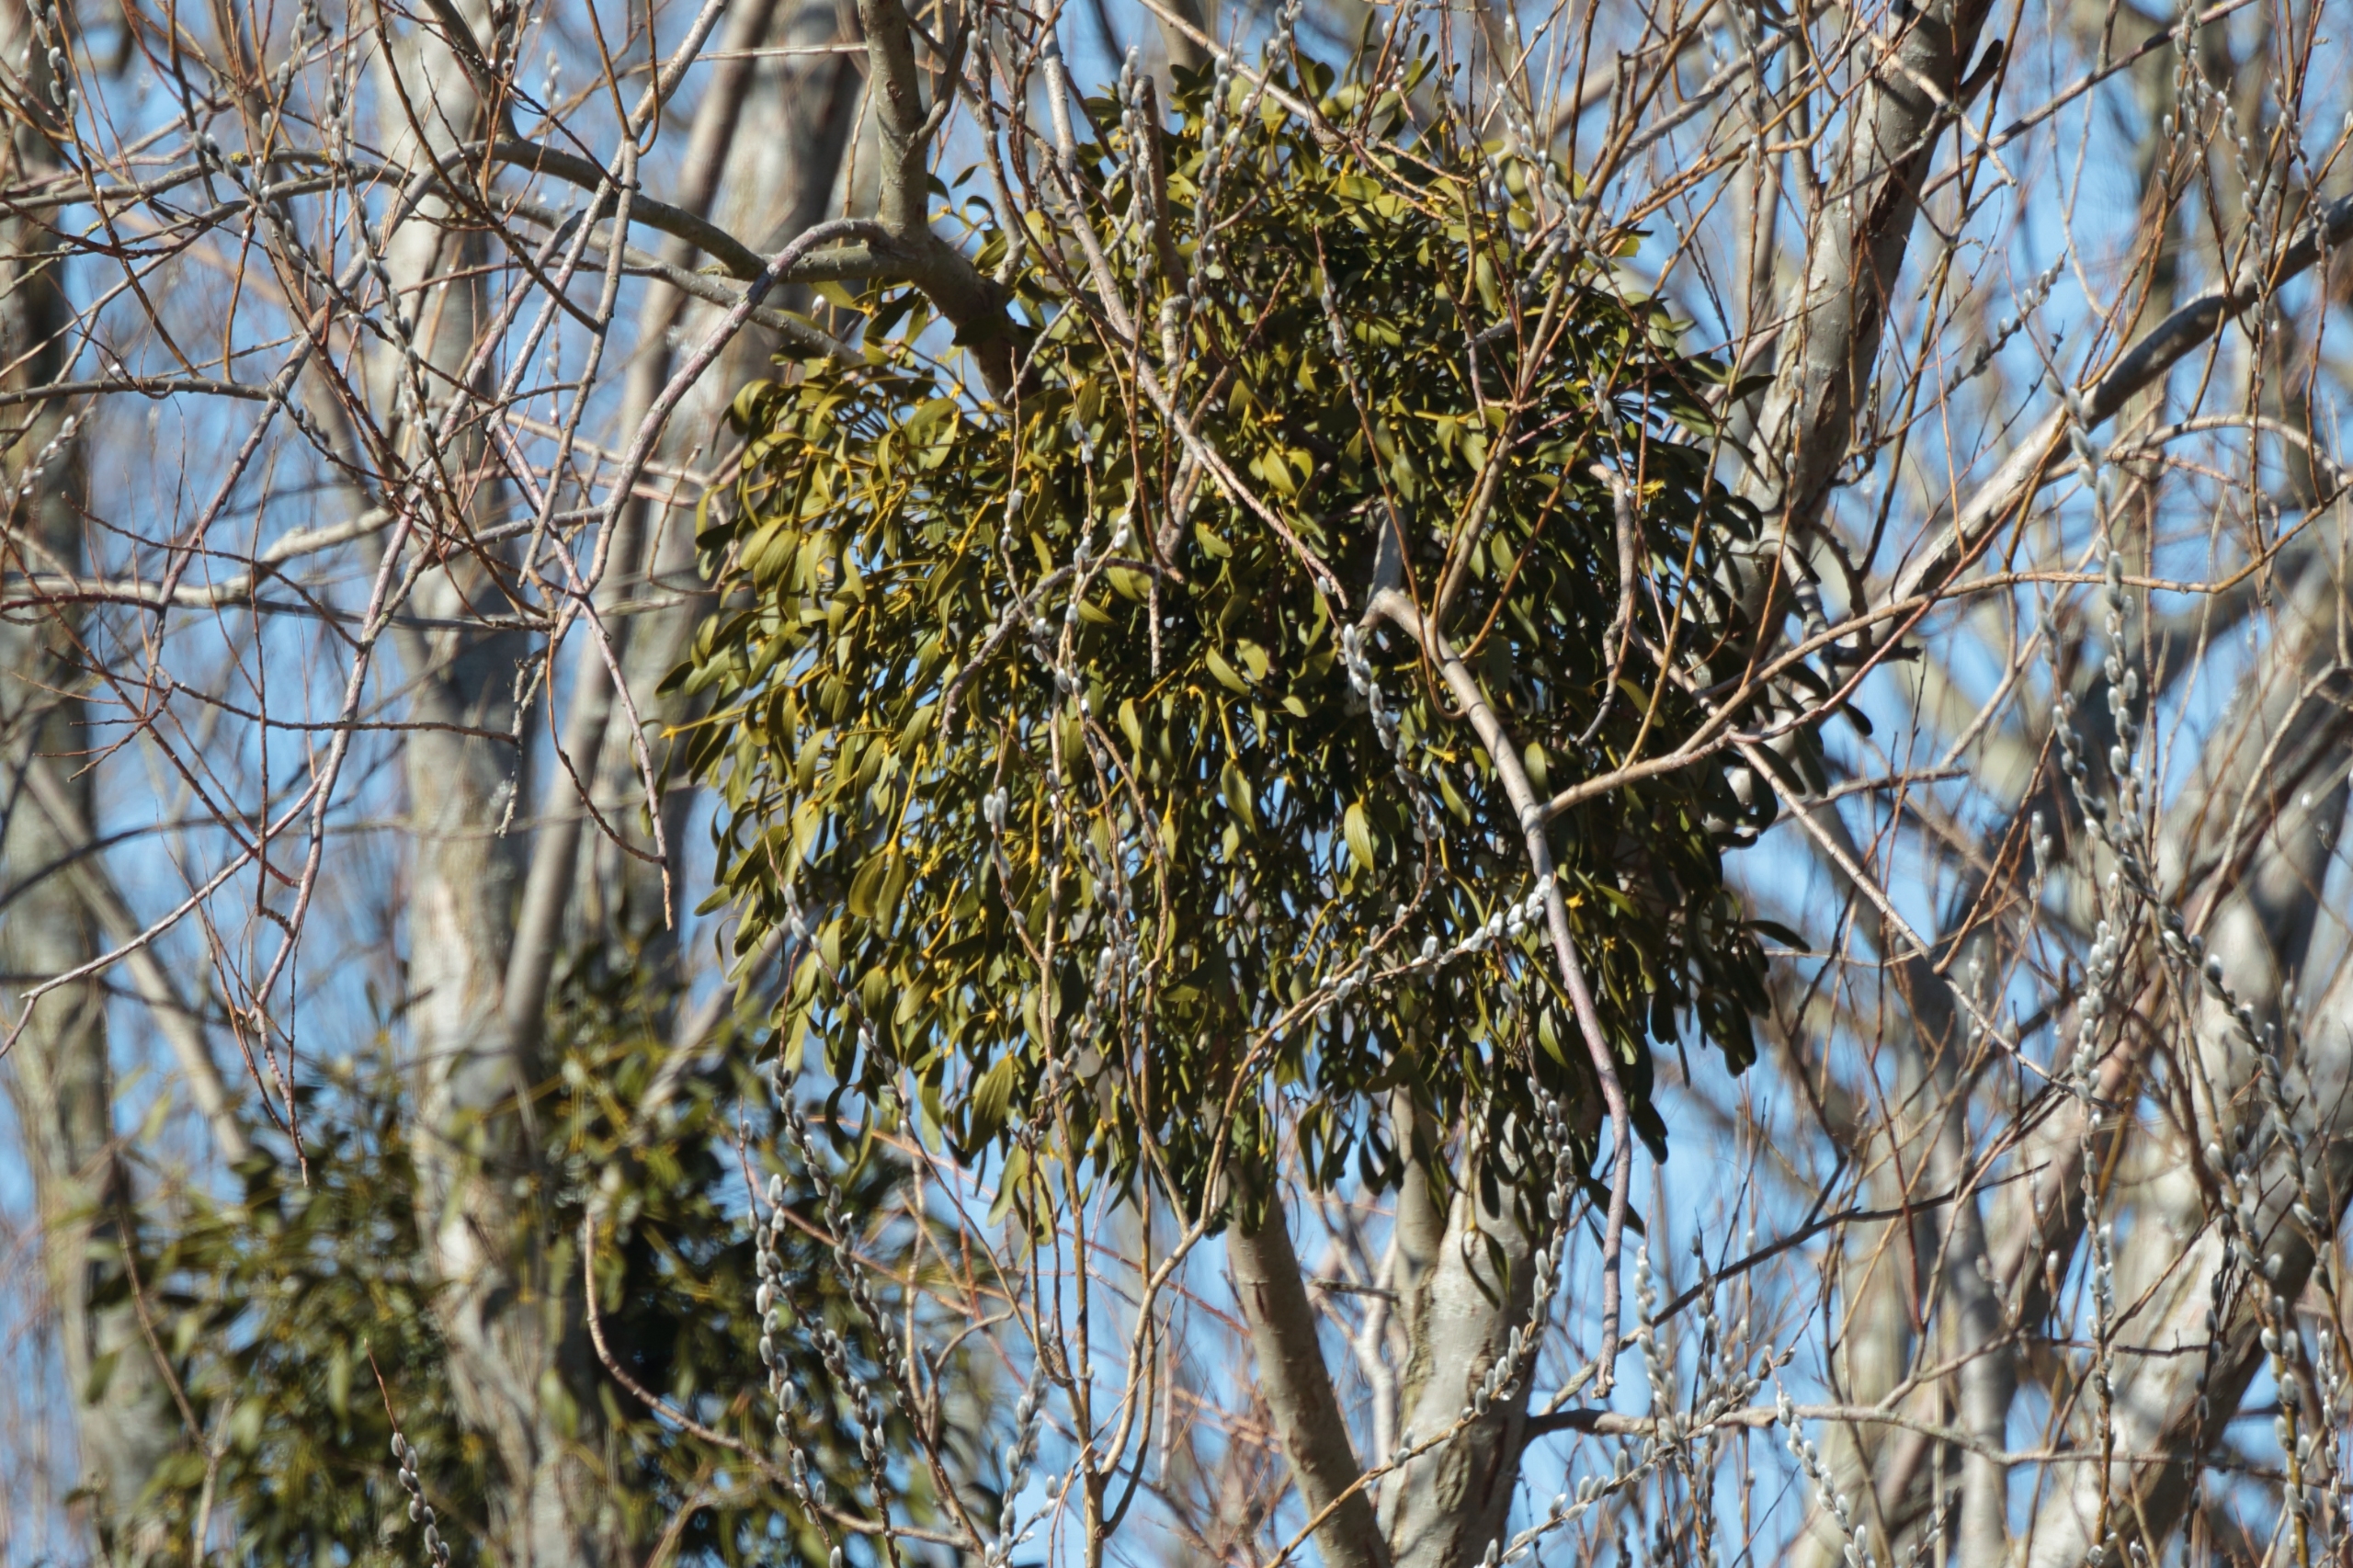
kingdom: Plantae
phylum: Tracheophyta
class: Magnoliopsida
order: Santalales
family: Viscaceae
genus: Viscum
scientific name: Viscum album
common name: Mistelten
